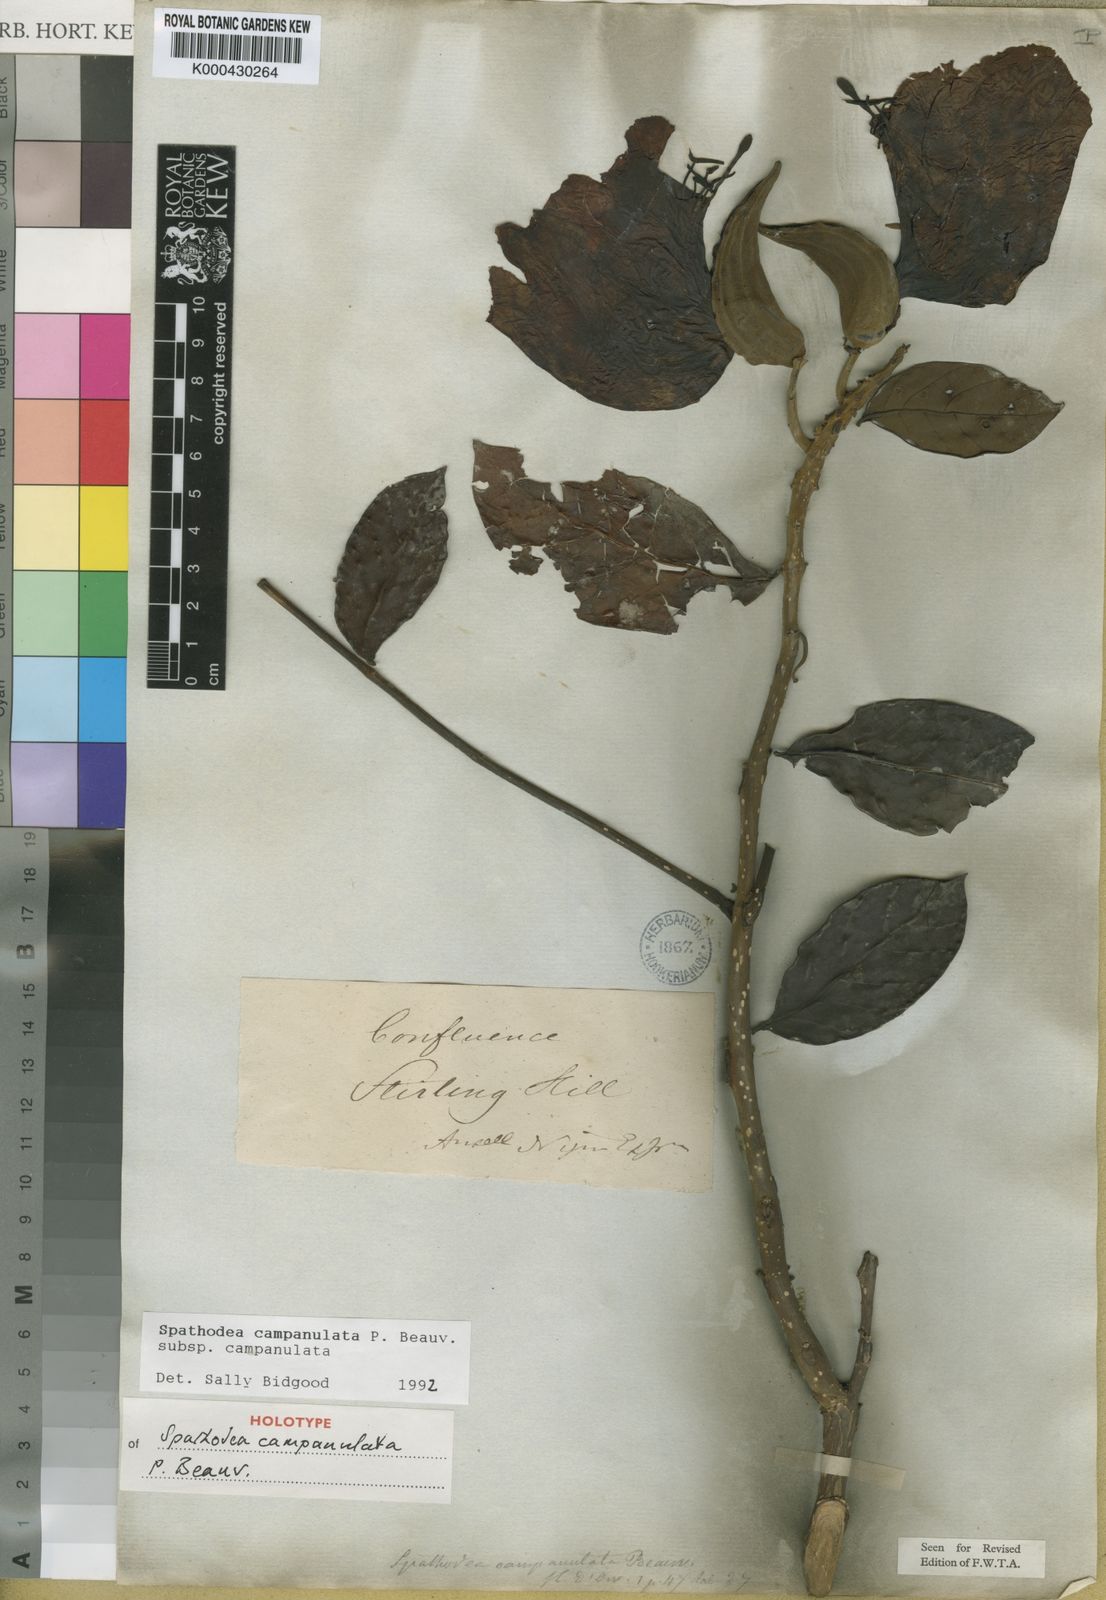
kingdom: Plantae
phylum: Tracheophyta
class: Magnoliopsida
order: Lamiales
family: Bignoniaceae
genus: Spathodea
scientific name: Spathodea campanulata
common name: African tuliptree
